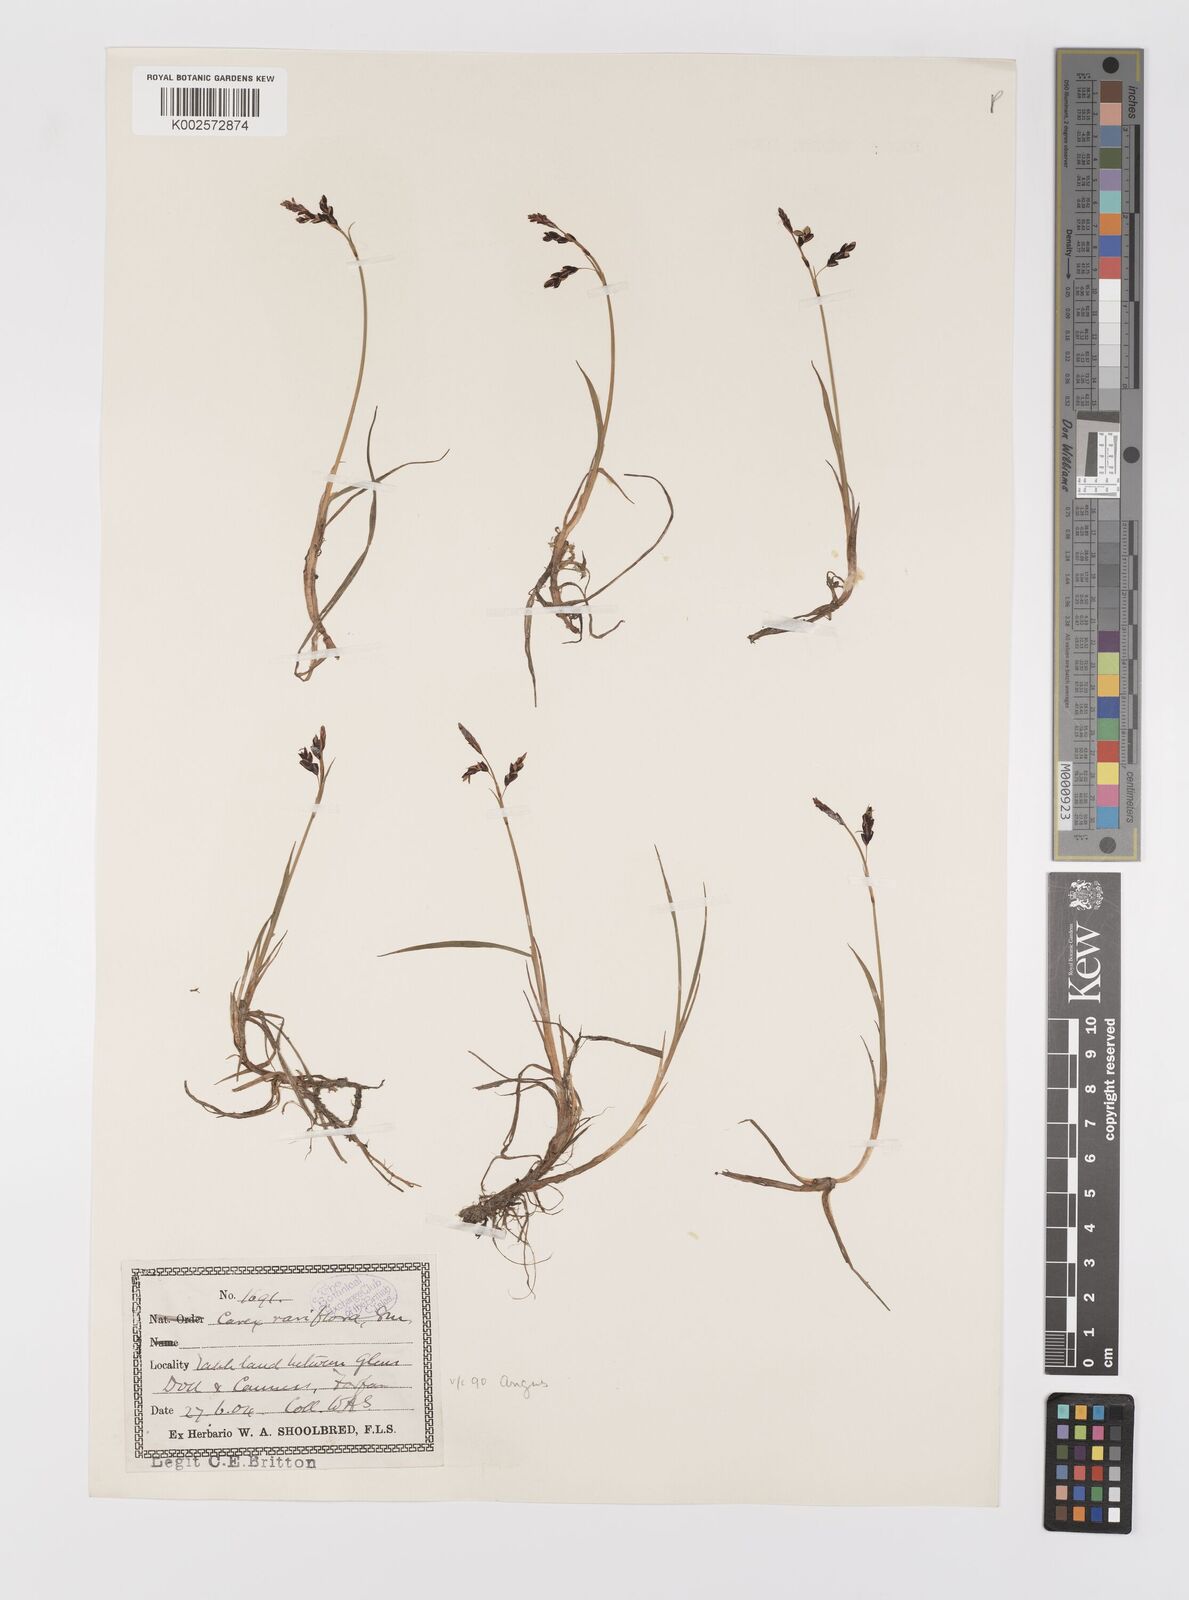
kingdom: Plantae
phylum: Tracheophyta
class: Liliopsida
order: Poales
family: Cyperaceae
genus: Carex
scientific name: Carex rariflora
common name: Loose-flowered alpine sedge
